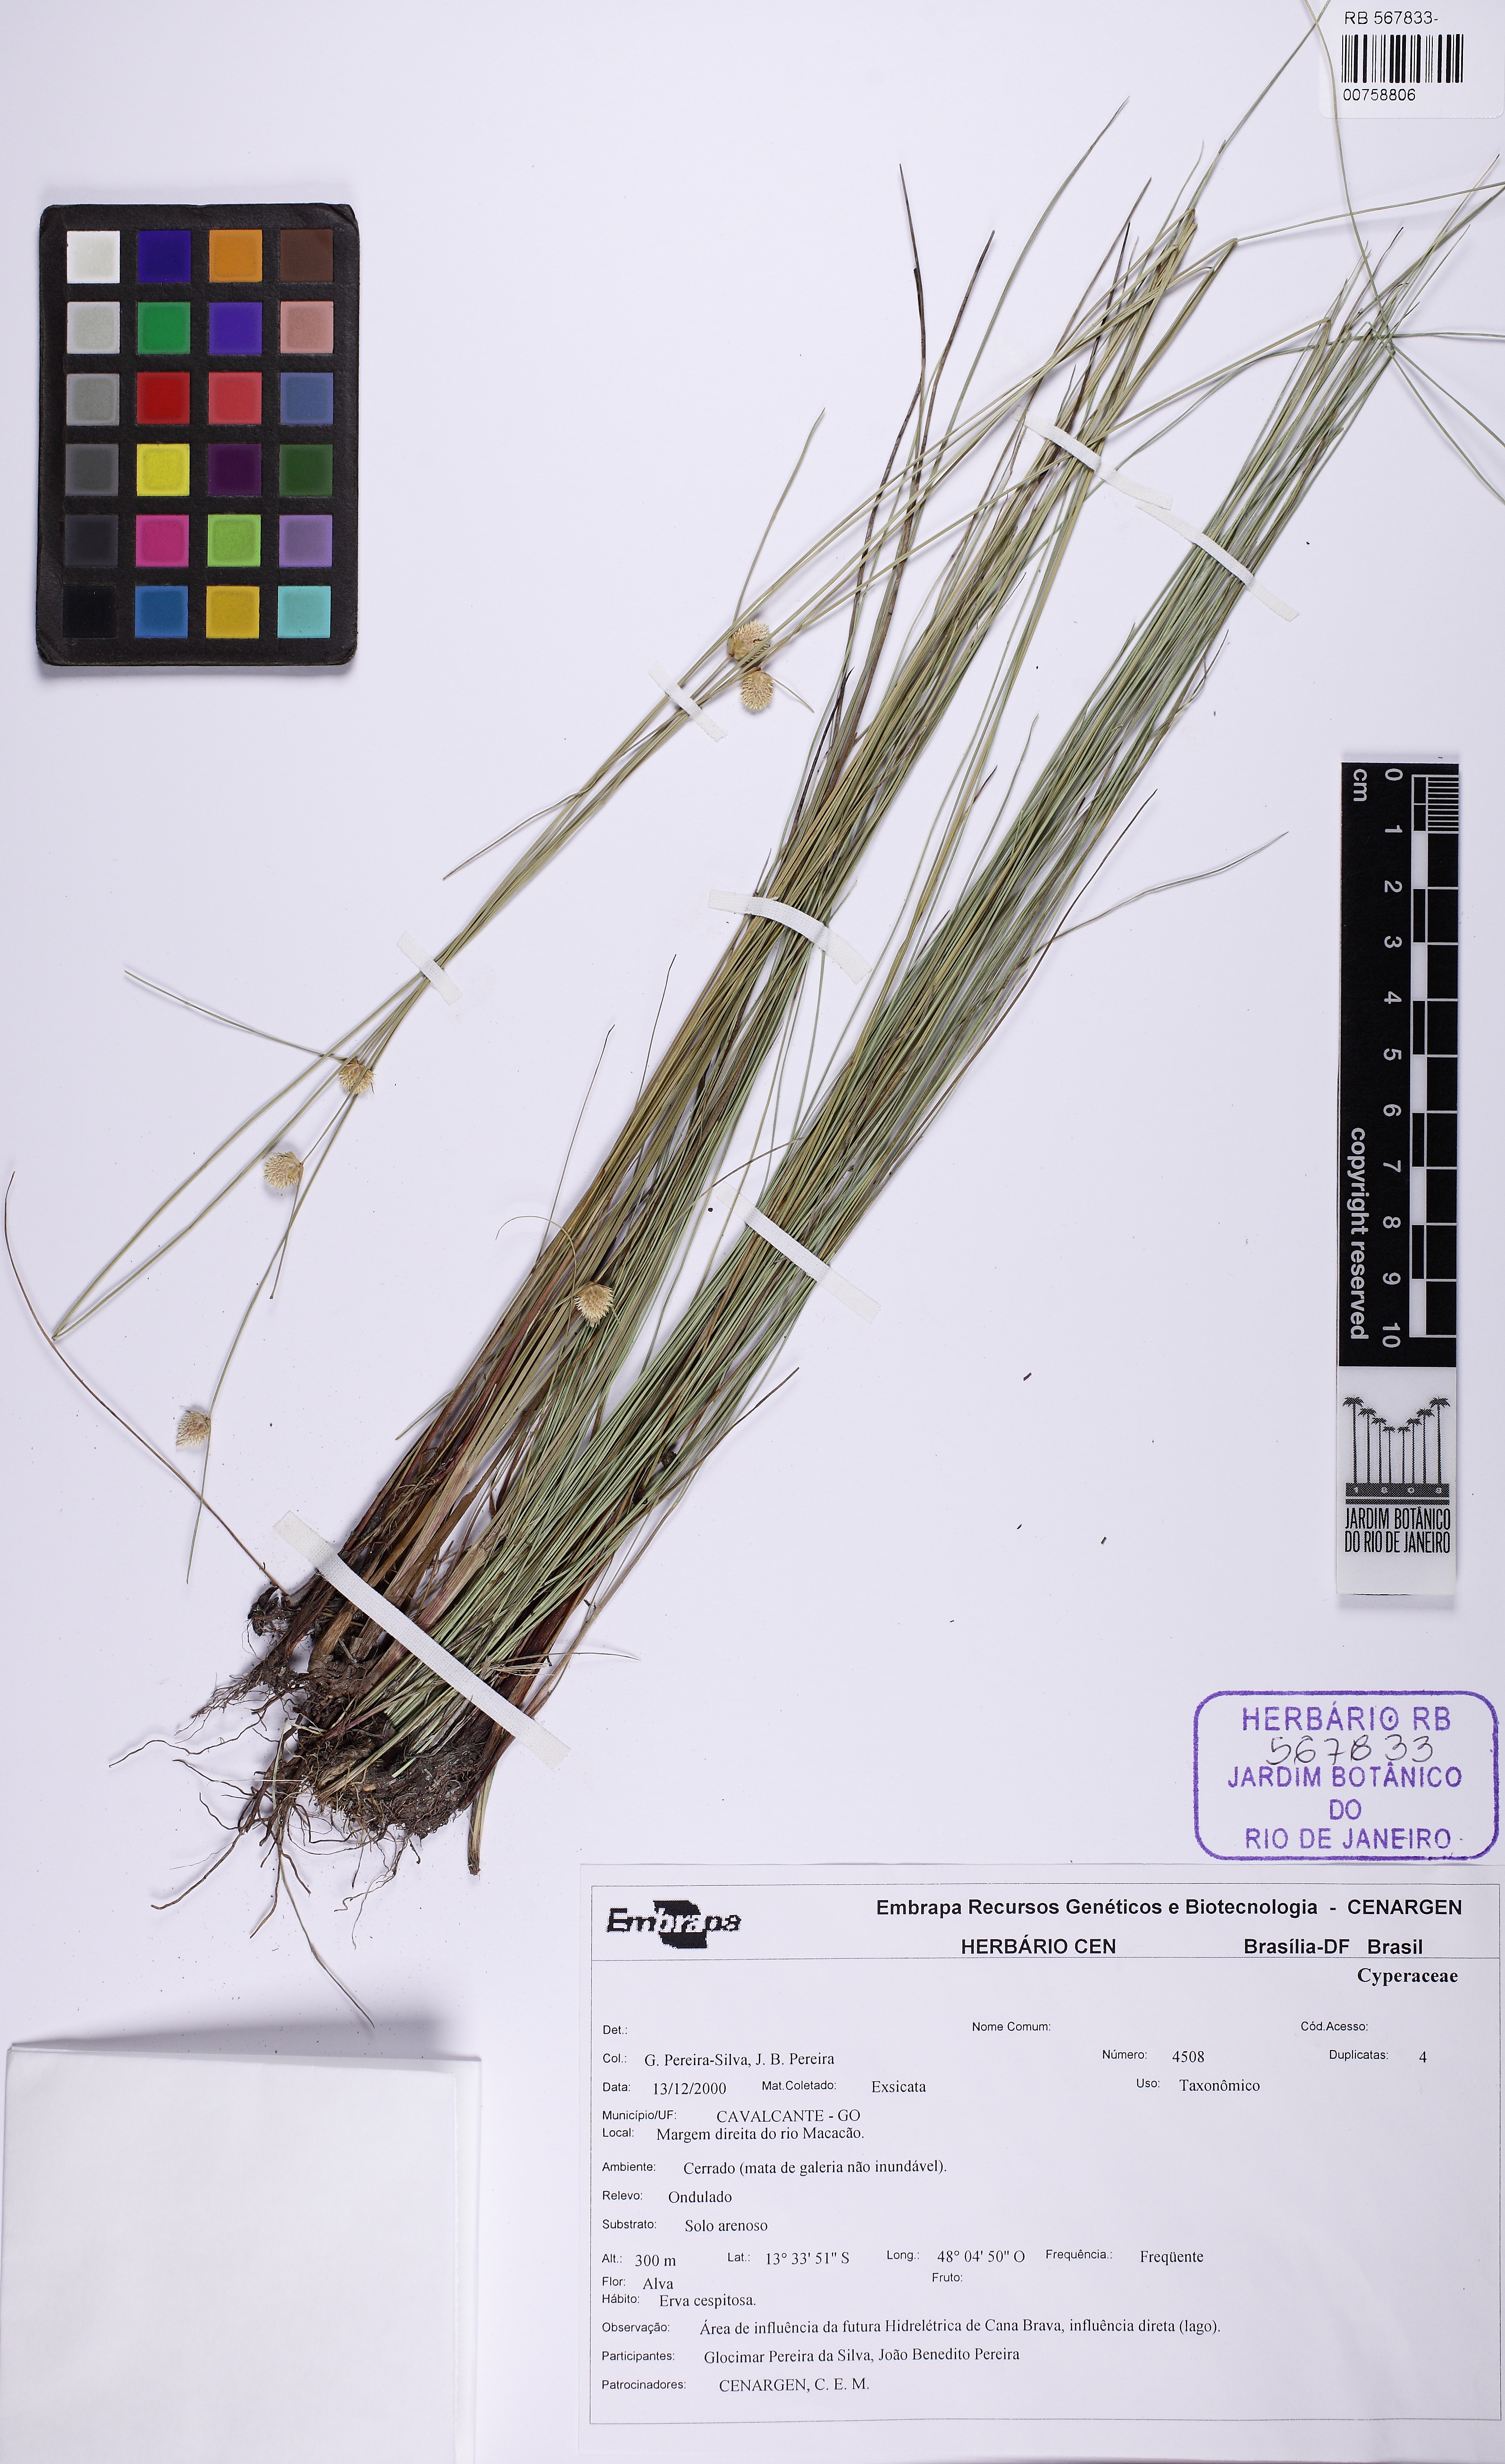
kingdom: Plantae
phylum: Tracheophyta
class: Liliopsida
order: Poales
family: Cyperaceae
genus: Cyperus
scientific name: Cyperus brasiliensis
